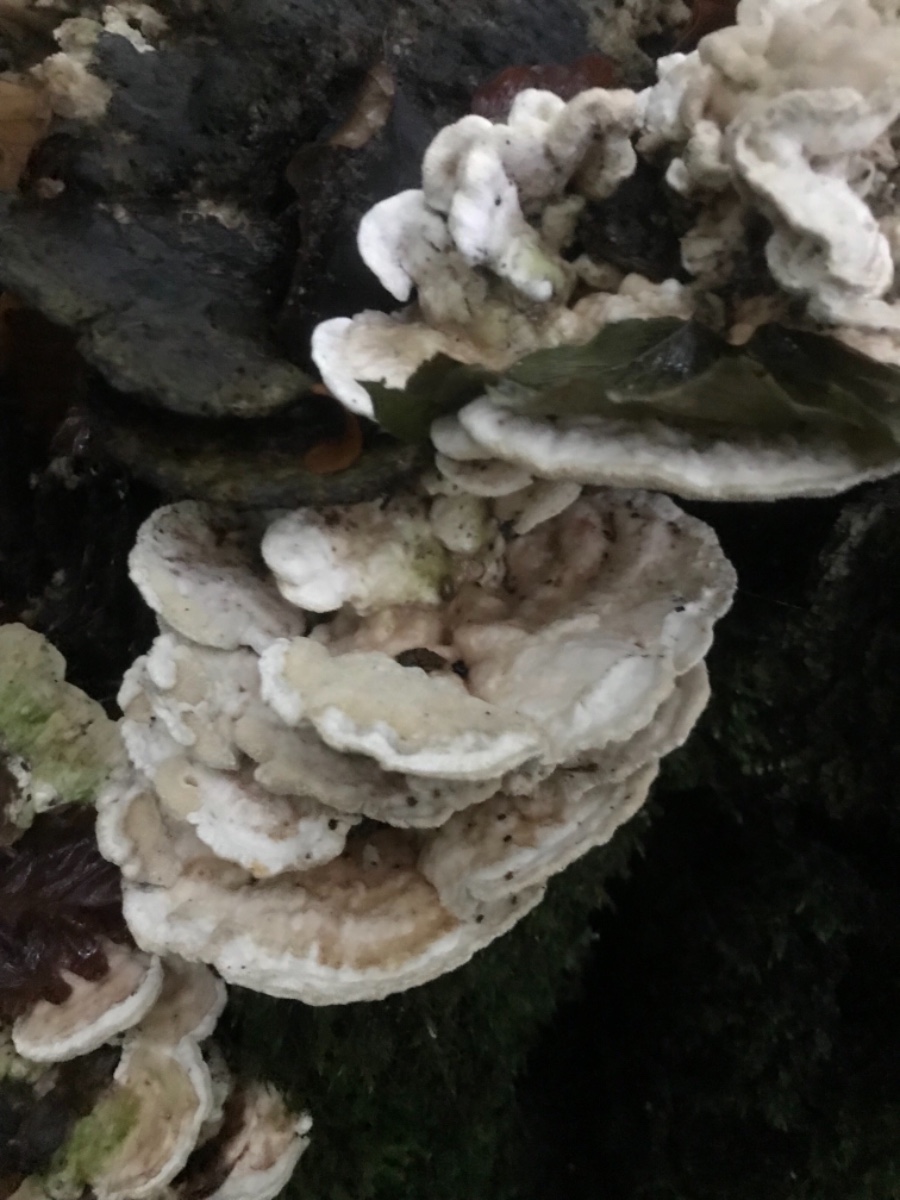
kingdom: Fungi
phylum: Basidiomycota
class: Agaricomycetes
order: Polyporales
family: Polyporaceae
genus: Trametes
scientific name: Trametes gibbosa
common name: puklet læderporesvamp
